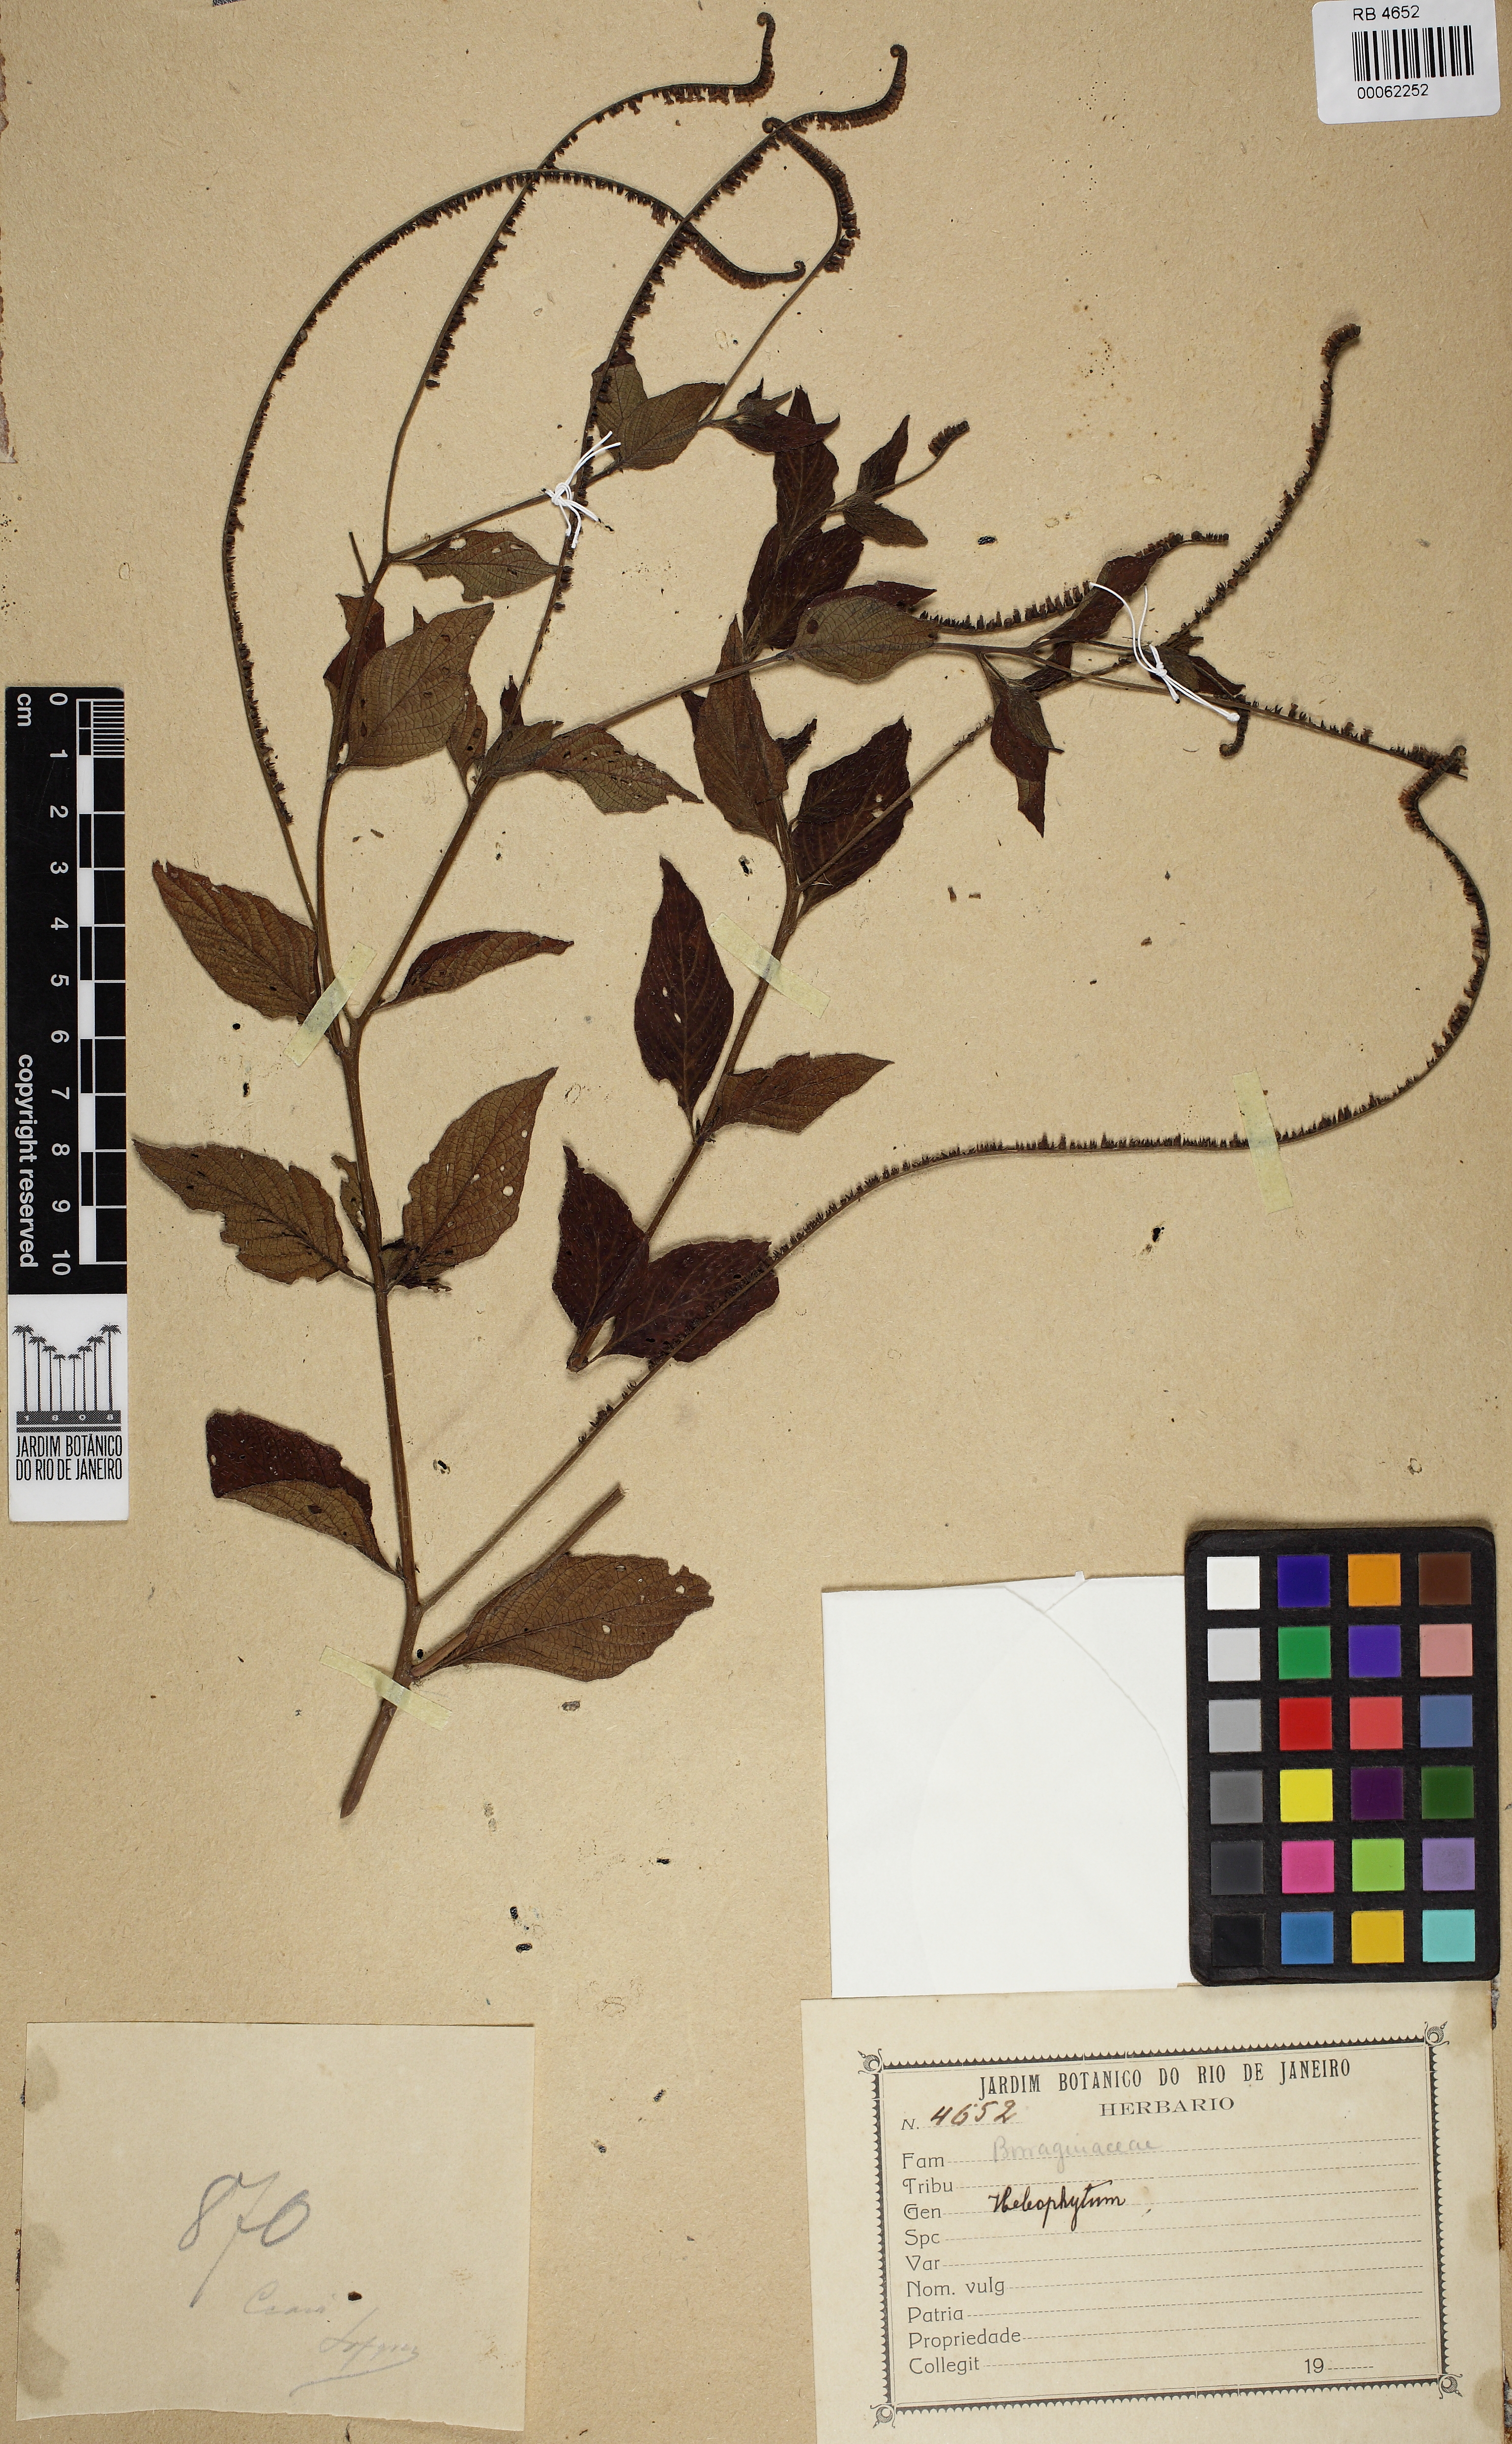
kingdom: Plantae
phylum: Tracheophyta
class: Magnoliopsida
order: Boraginales
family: Heliotropiaceae
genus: Heliotropium
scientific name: Heliotropium angiospermum
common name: Eye bright
